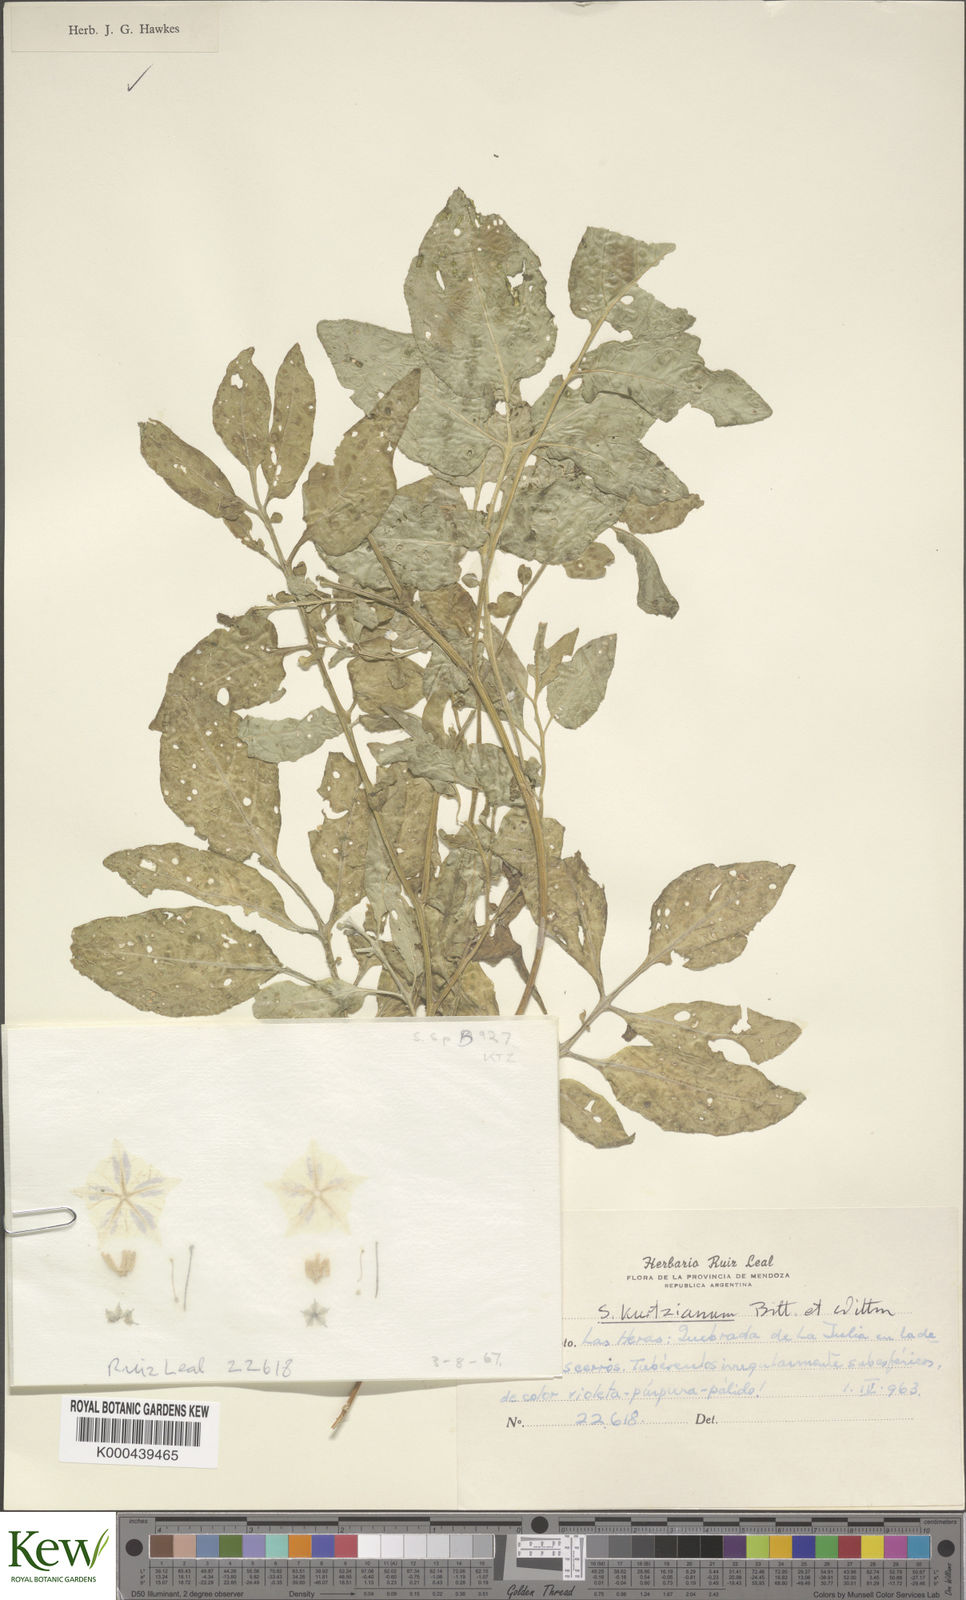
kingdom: Plantae
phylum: Tracheophyta
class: Magnoliopsida
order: Solanales
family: Solanaceae
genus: Solanum
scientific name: Solanum kurtzianum
